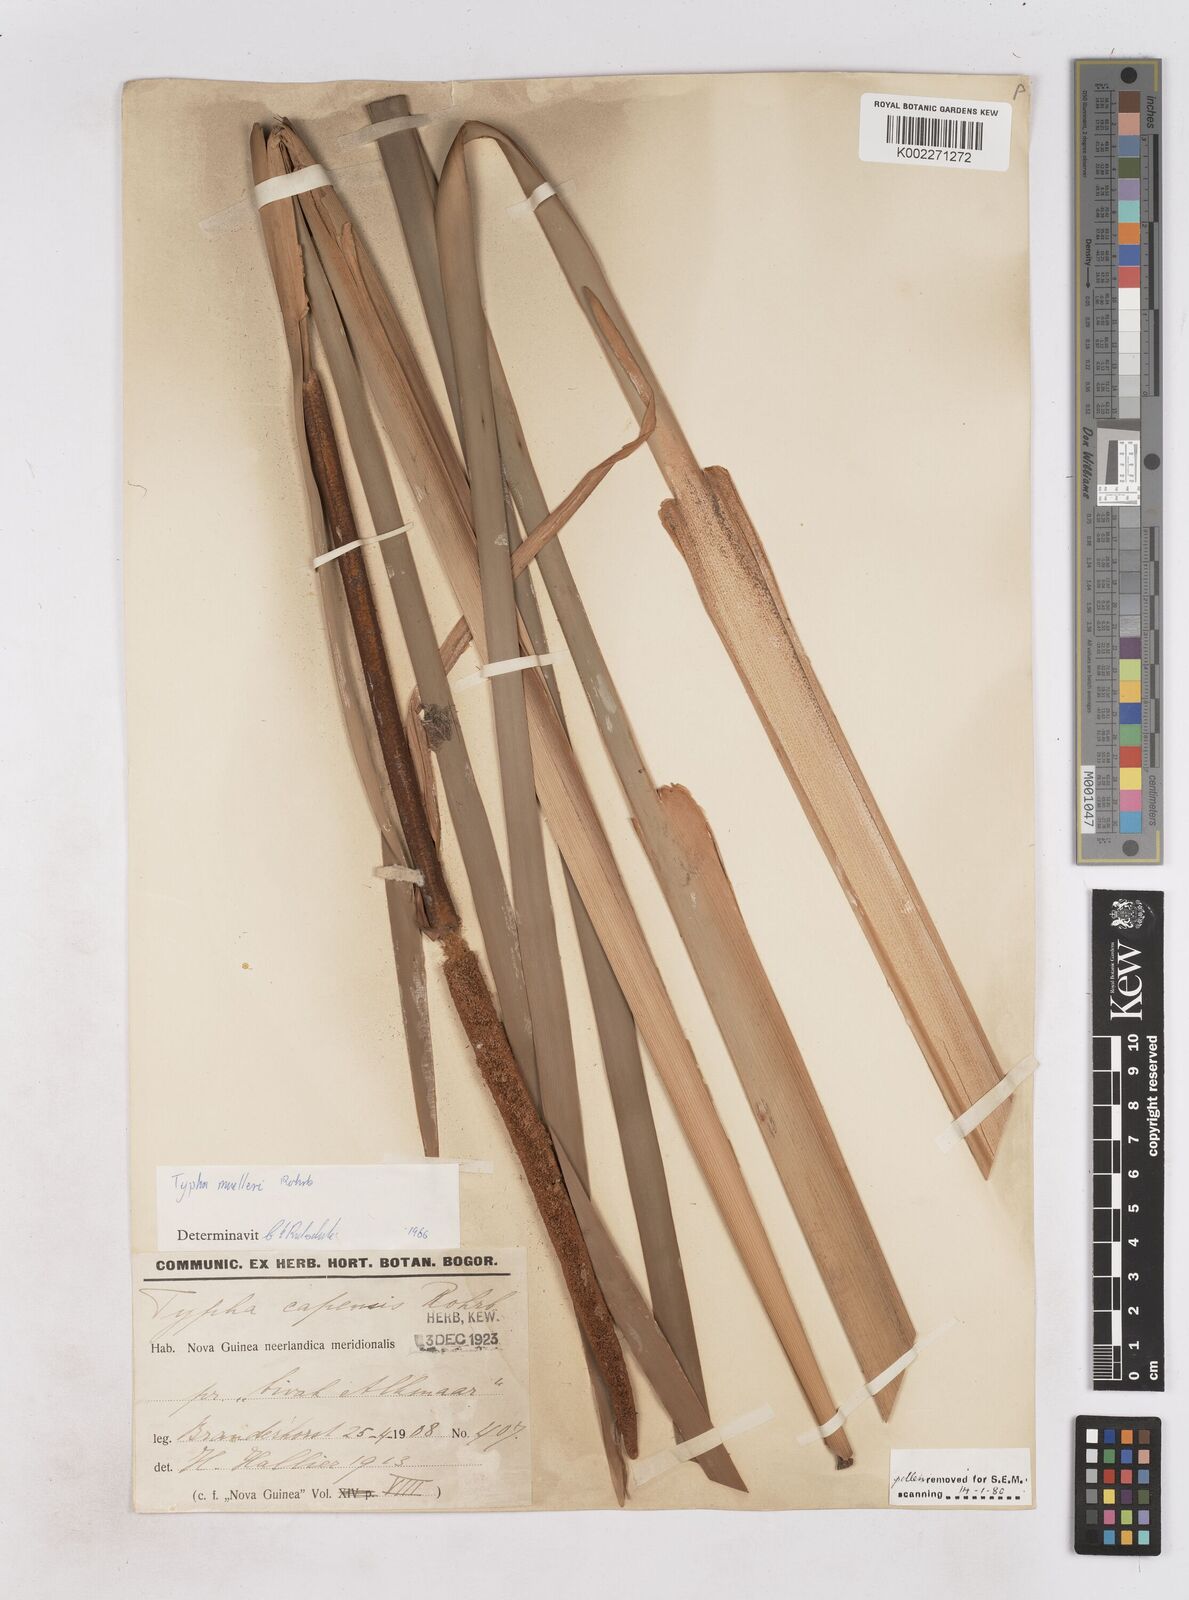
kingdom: Plantae
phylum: Tracheophyta
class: Liliopsida
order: Poales
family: Typhaceae
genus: Typha
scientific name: Typha orientalis
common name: Bullrush
